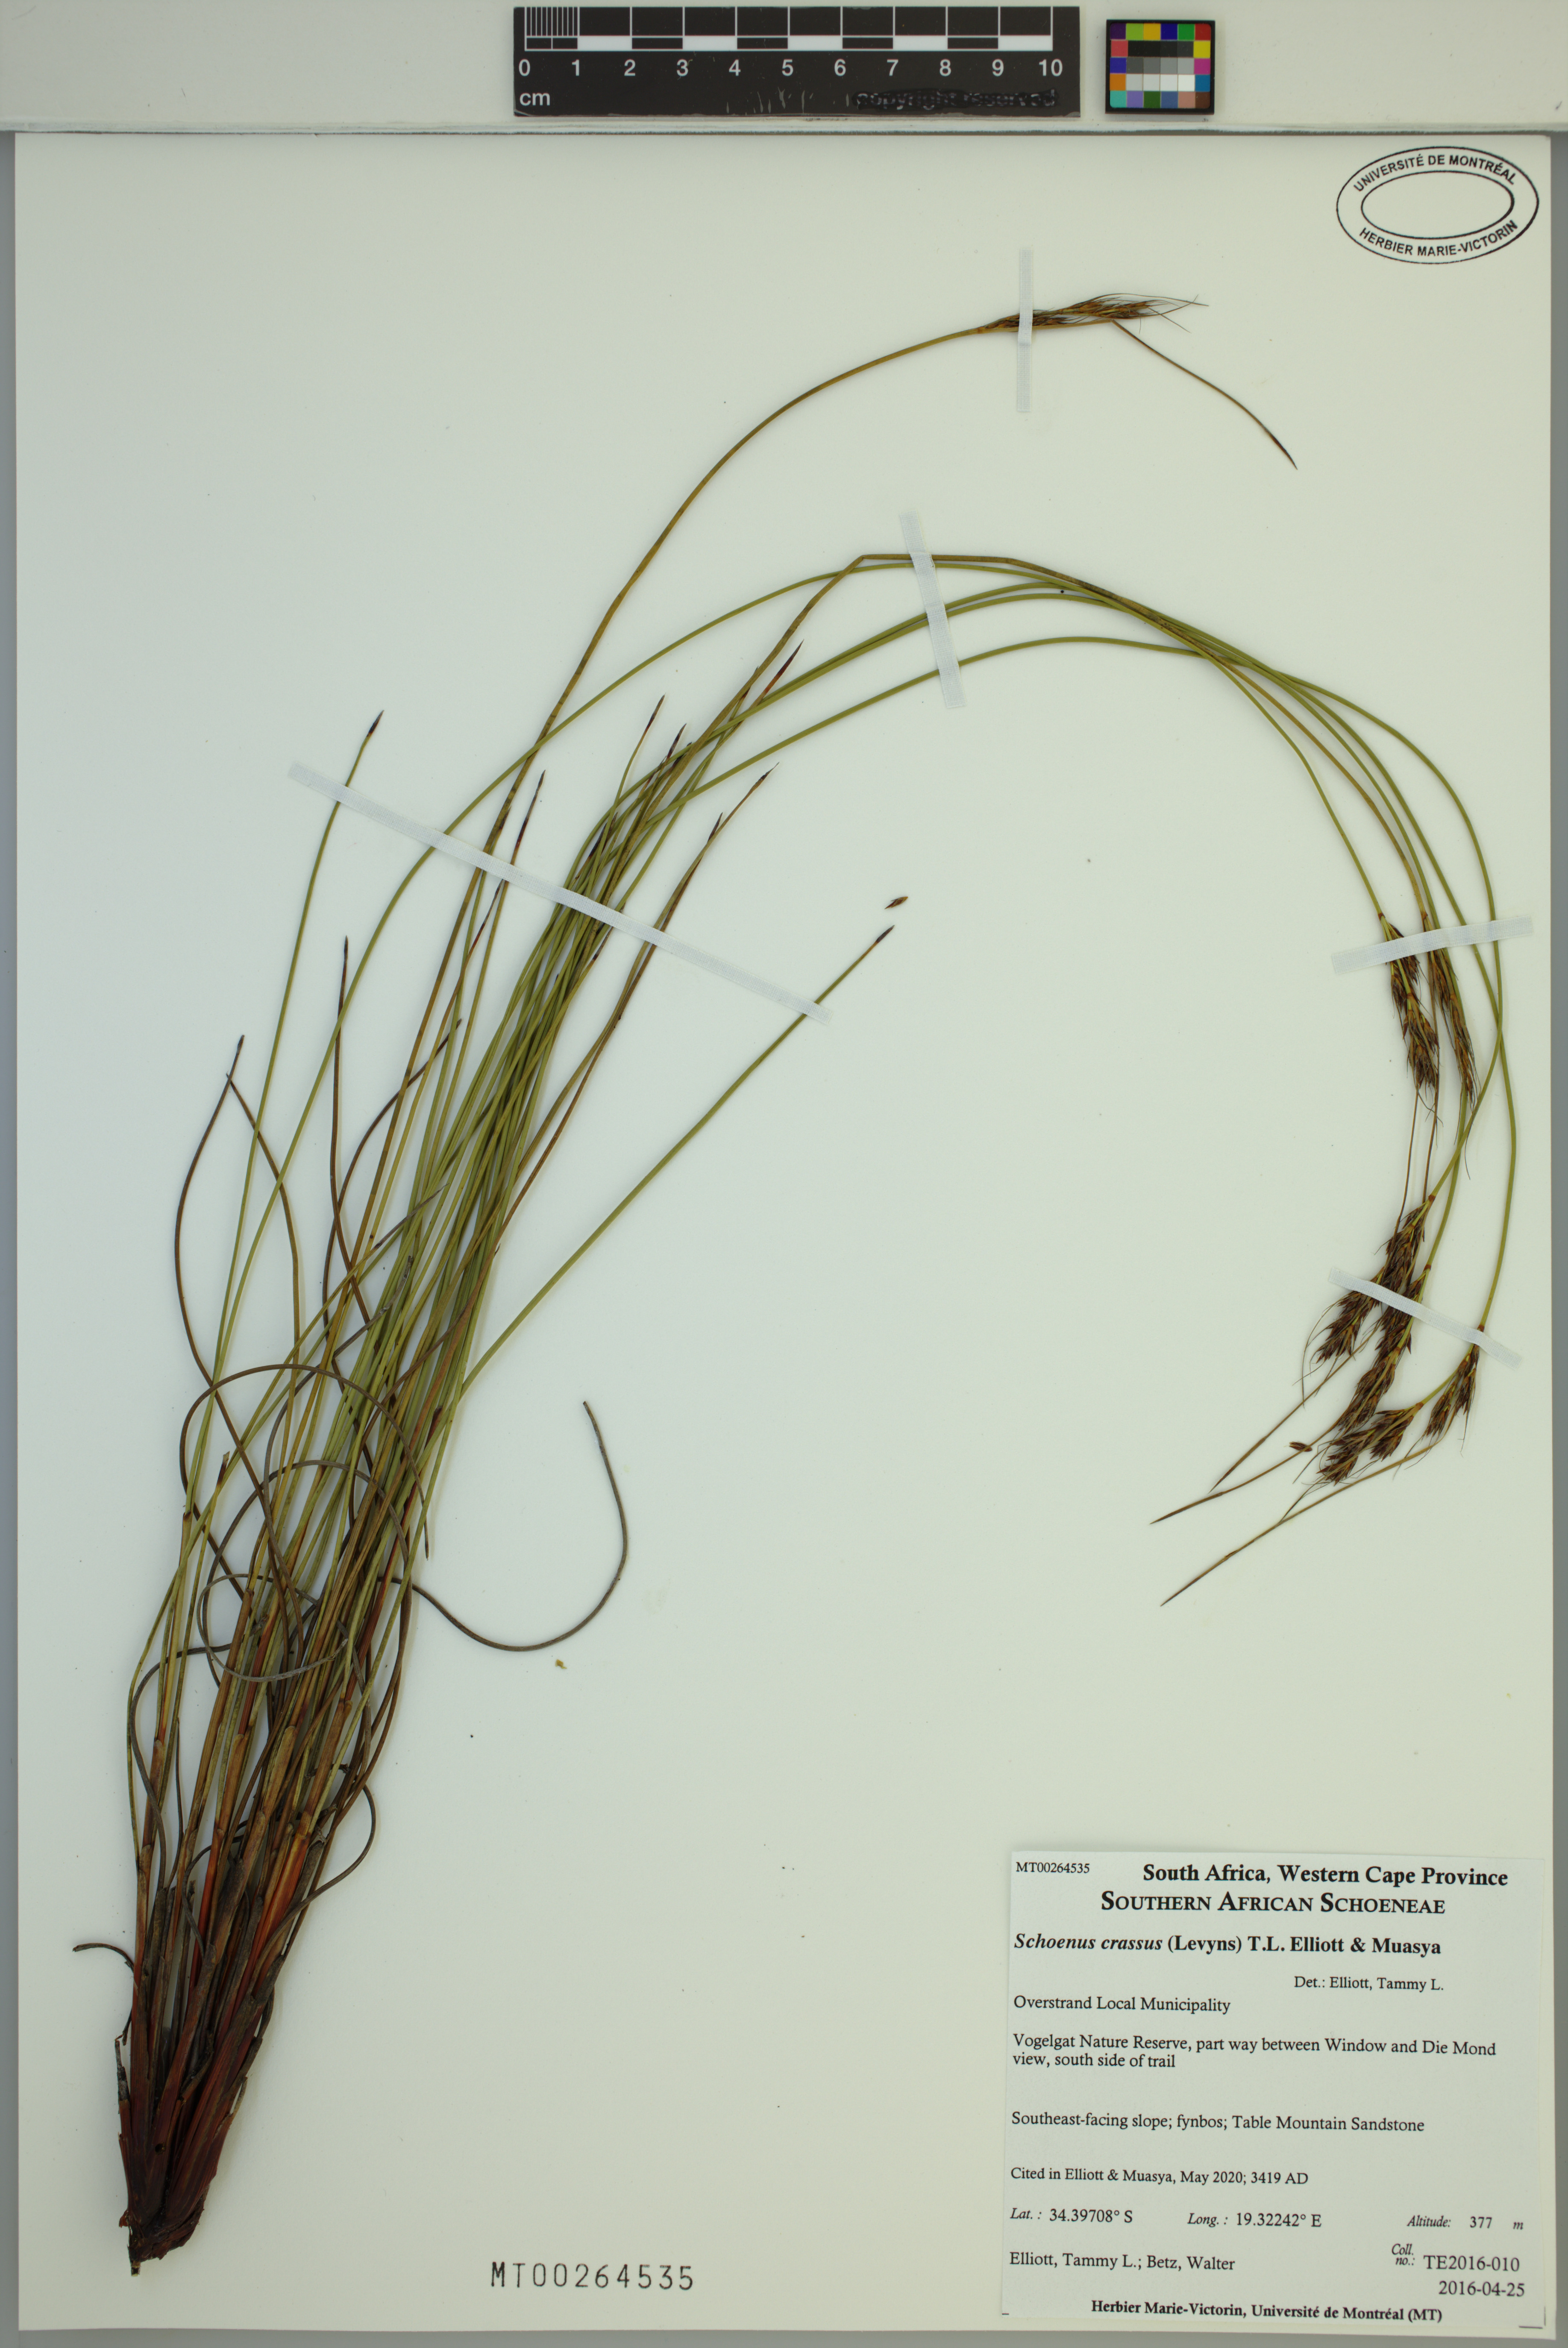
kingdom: Plantae
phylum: Tracheophyta
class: Liliopsida
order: Poales
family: Cyperaceae
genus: Schoenus
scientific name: Schoenus crassus
